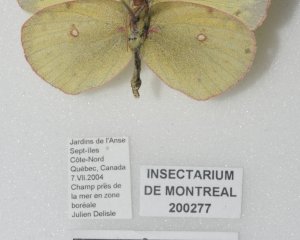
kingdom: Animalia
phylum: Arthropoda
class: Insecta
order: Lepidoptera
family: Pieridae
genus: Colias
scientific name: Colias philodice
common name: Clouded Sulphur
